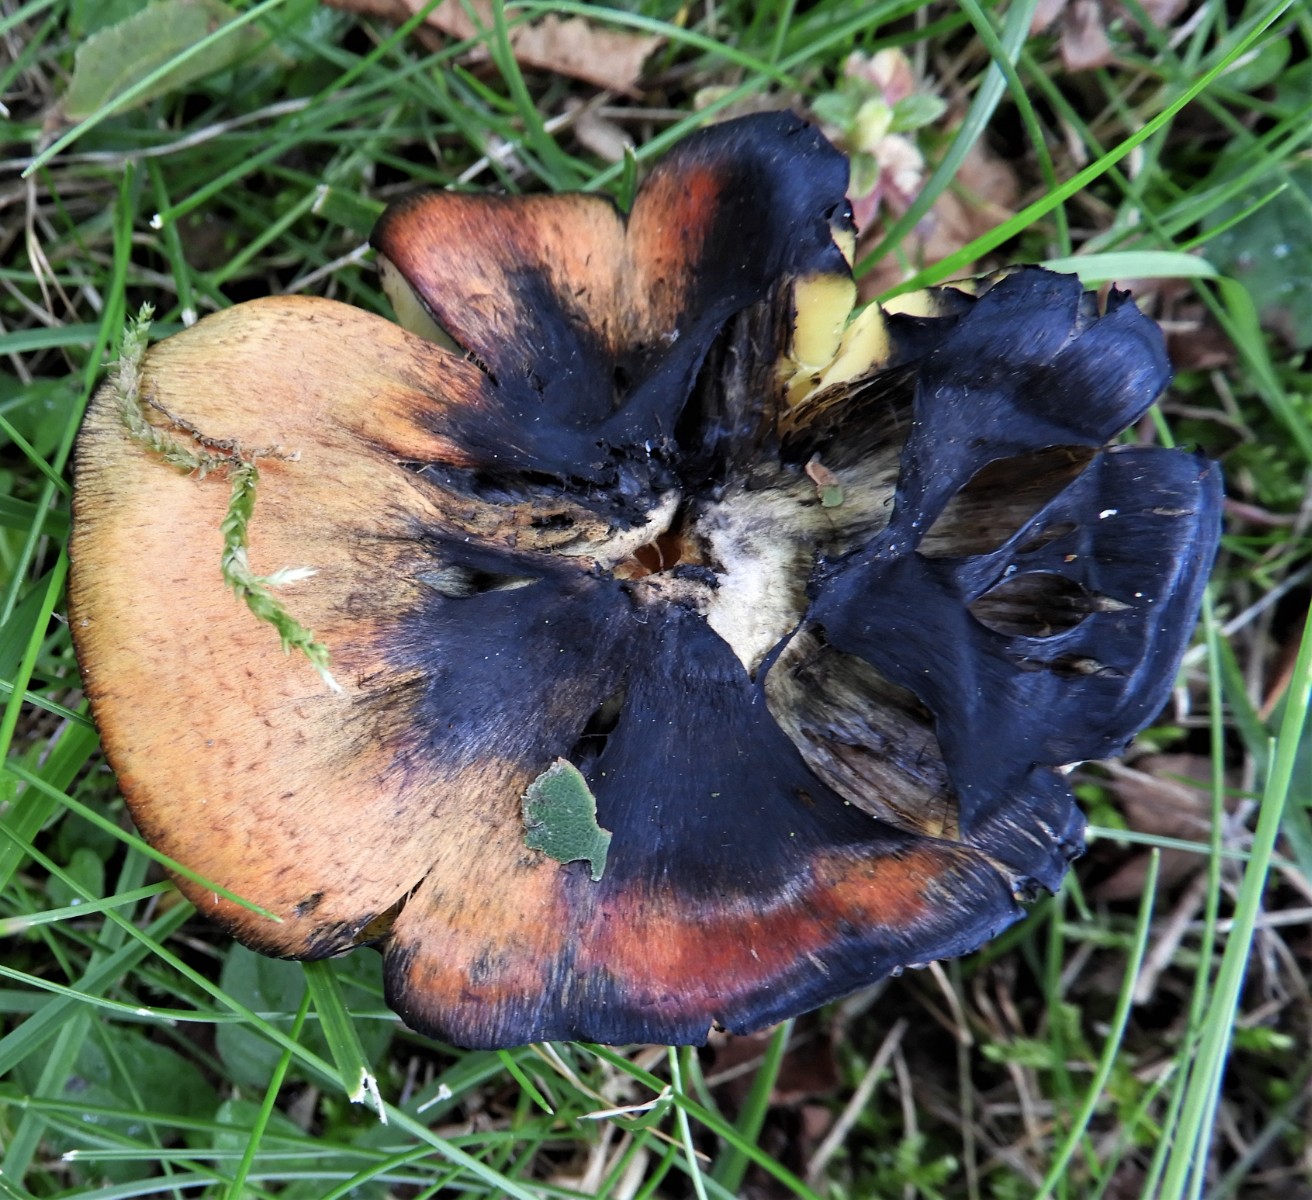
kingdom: Fungi
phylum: Basidiomycota
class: Agaricomycetes
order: Agaricales
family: Hygrophoraceae
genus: Hygrocybe
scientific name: Hygrocybe conica
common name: kegle-vokshat
